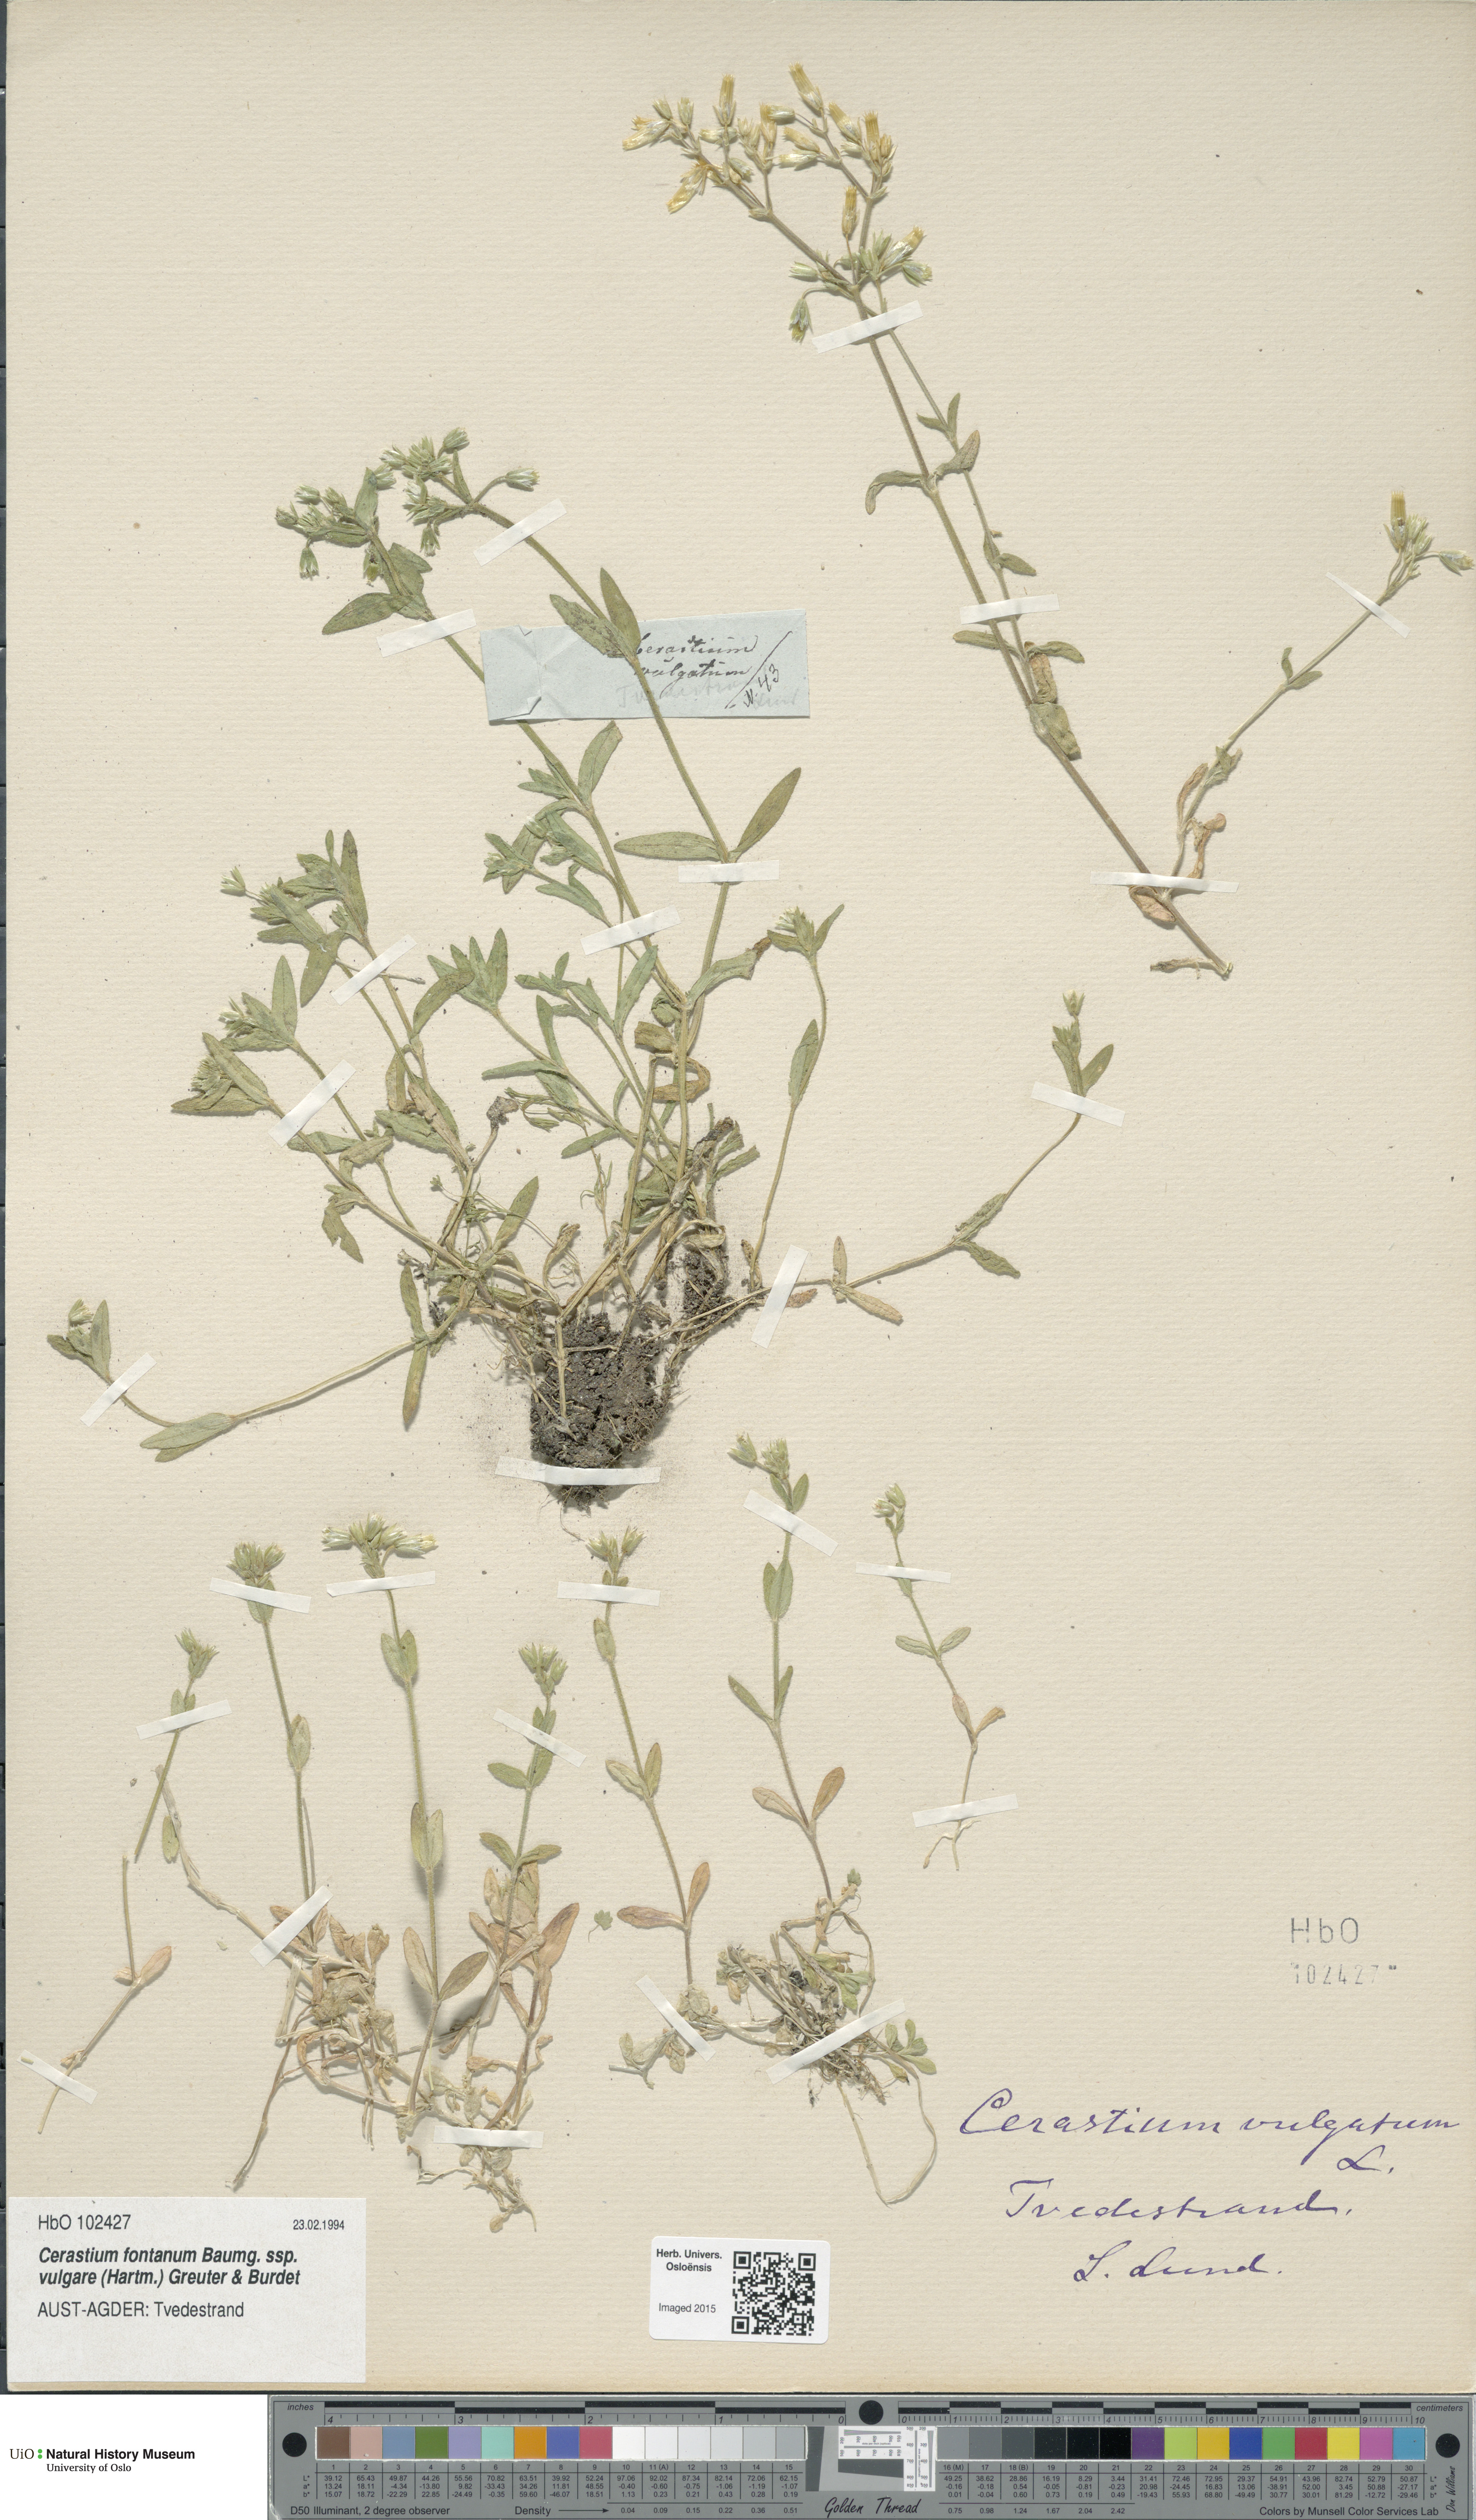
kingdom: Plantae
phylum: Tracheophyta
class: Magnoliopsida
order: Caryophyllales
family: Caryophyllaceae
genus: Cerastium
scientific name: Cerastium holosteoides
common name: Big chickweed
